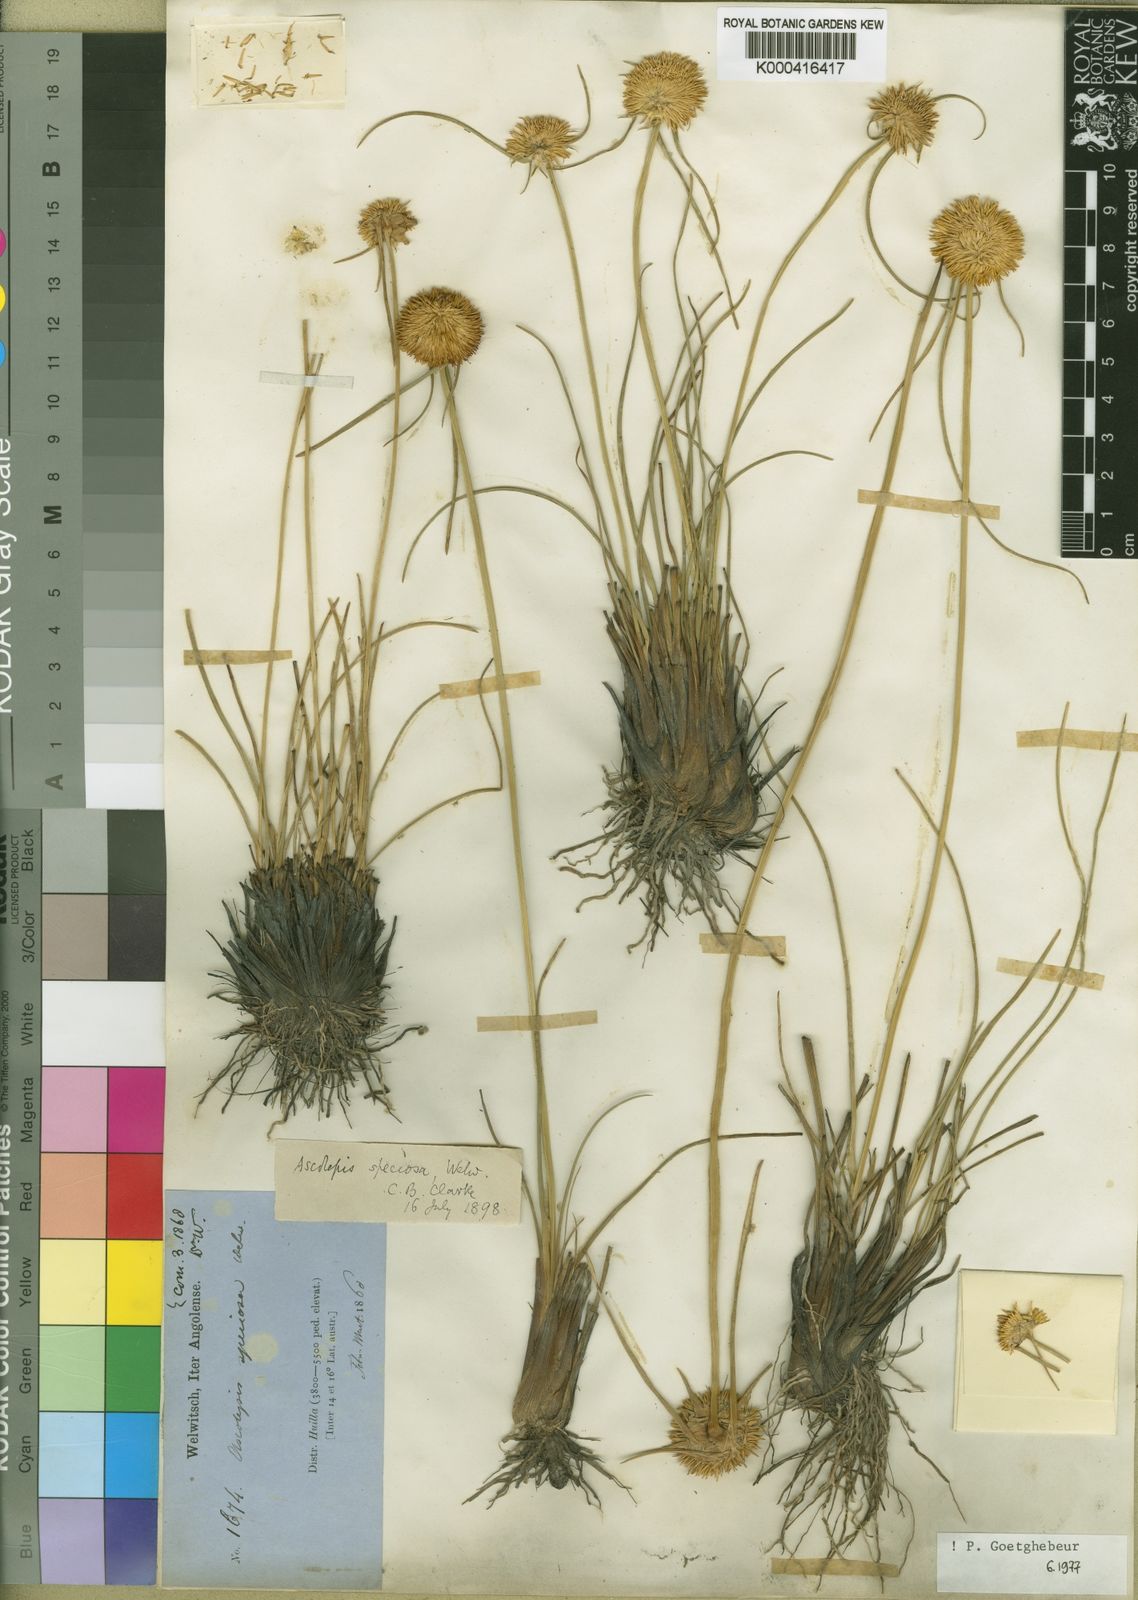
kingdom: Plantae
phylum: Tracheophyta
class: Liliopsida
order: Poales
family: Cyperaceae
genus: Cyperus
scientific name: Cyperus vatkeanus
